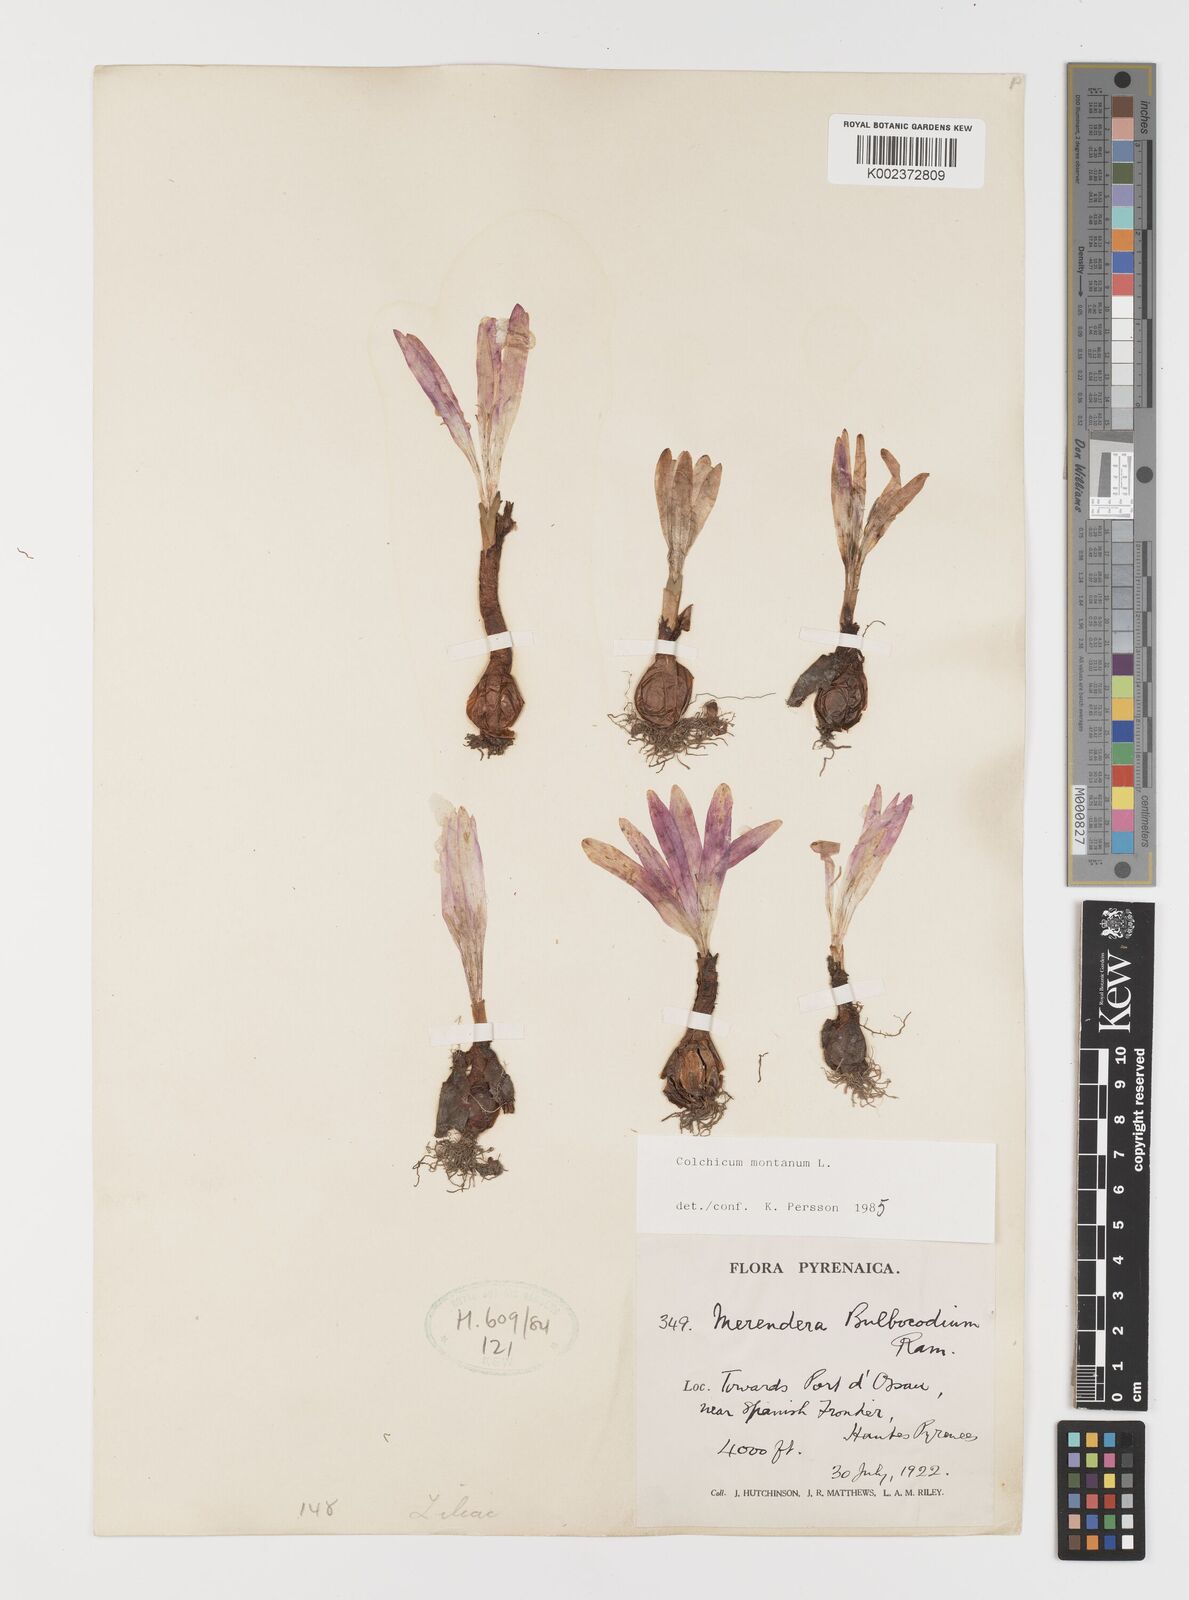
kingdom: Plantae
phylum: Tracheophyta
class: Liliopsida
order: Liliales
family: Colchicaceae
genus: Colchicum
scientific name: Colchicum montanum
